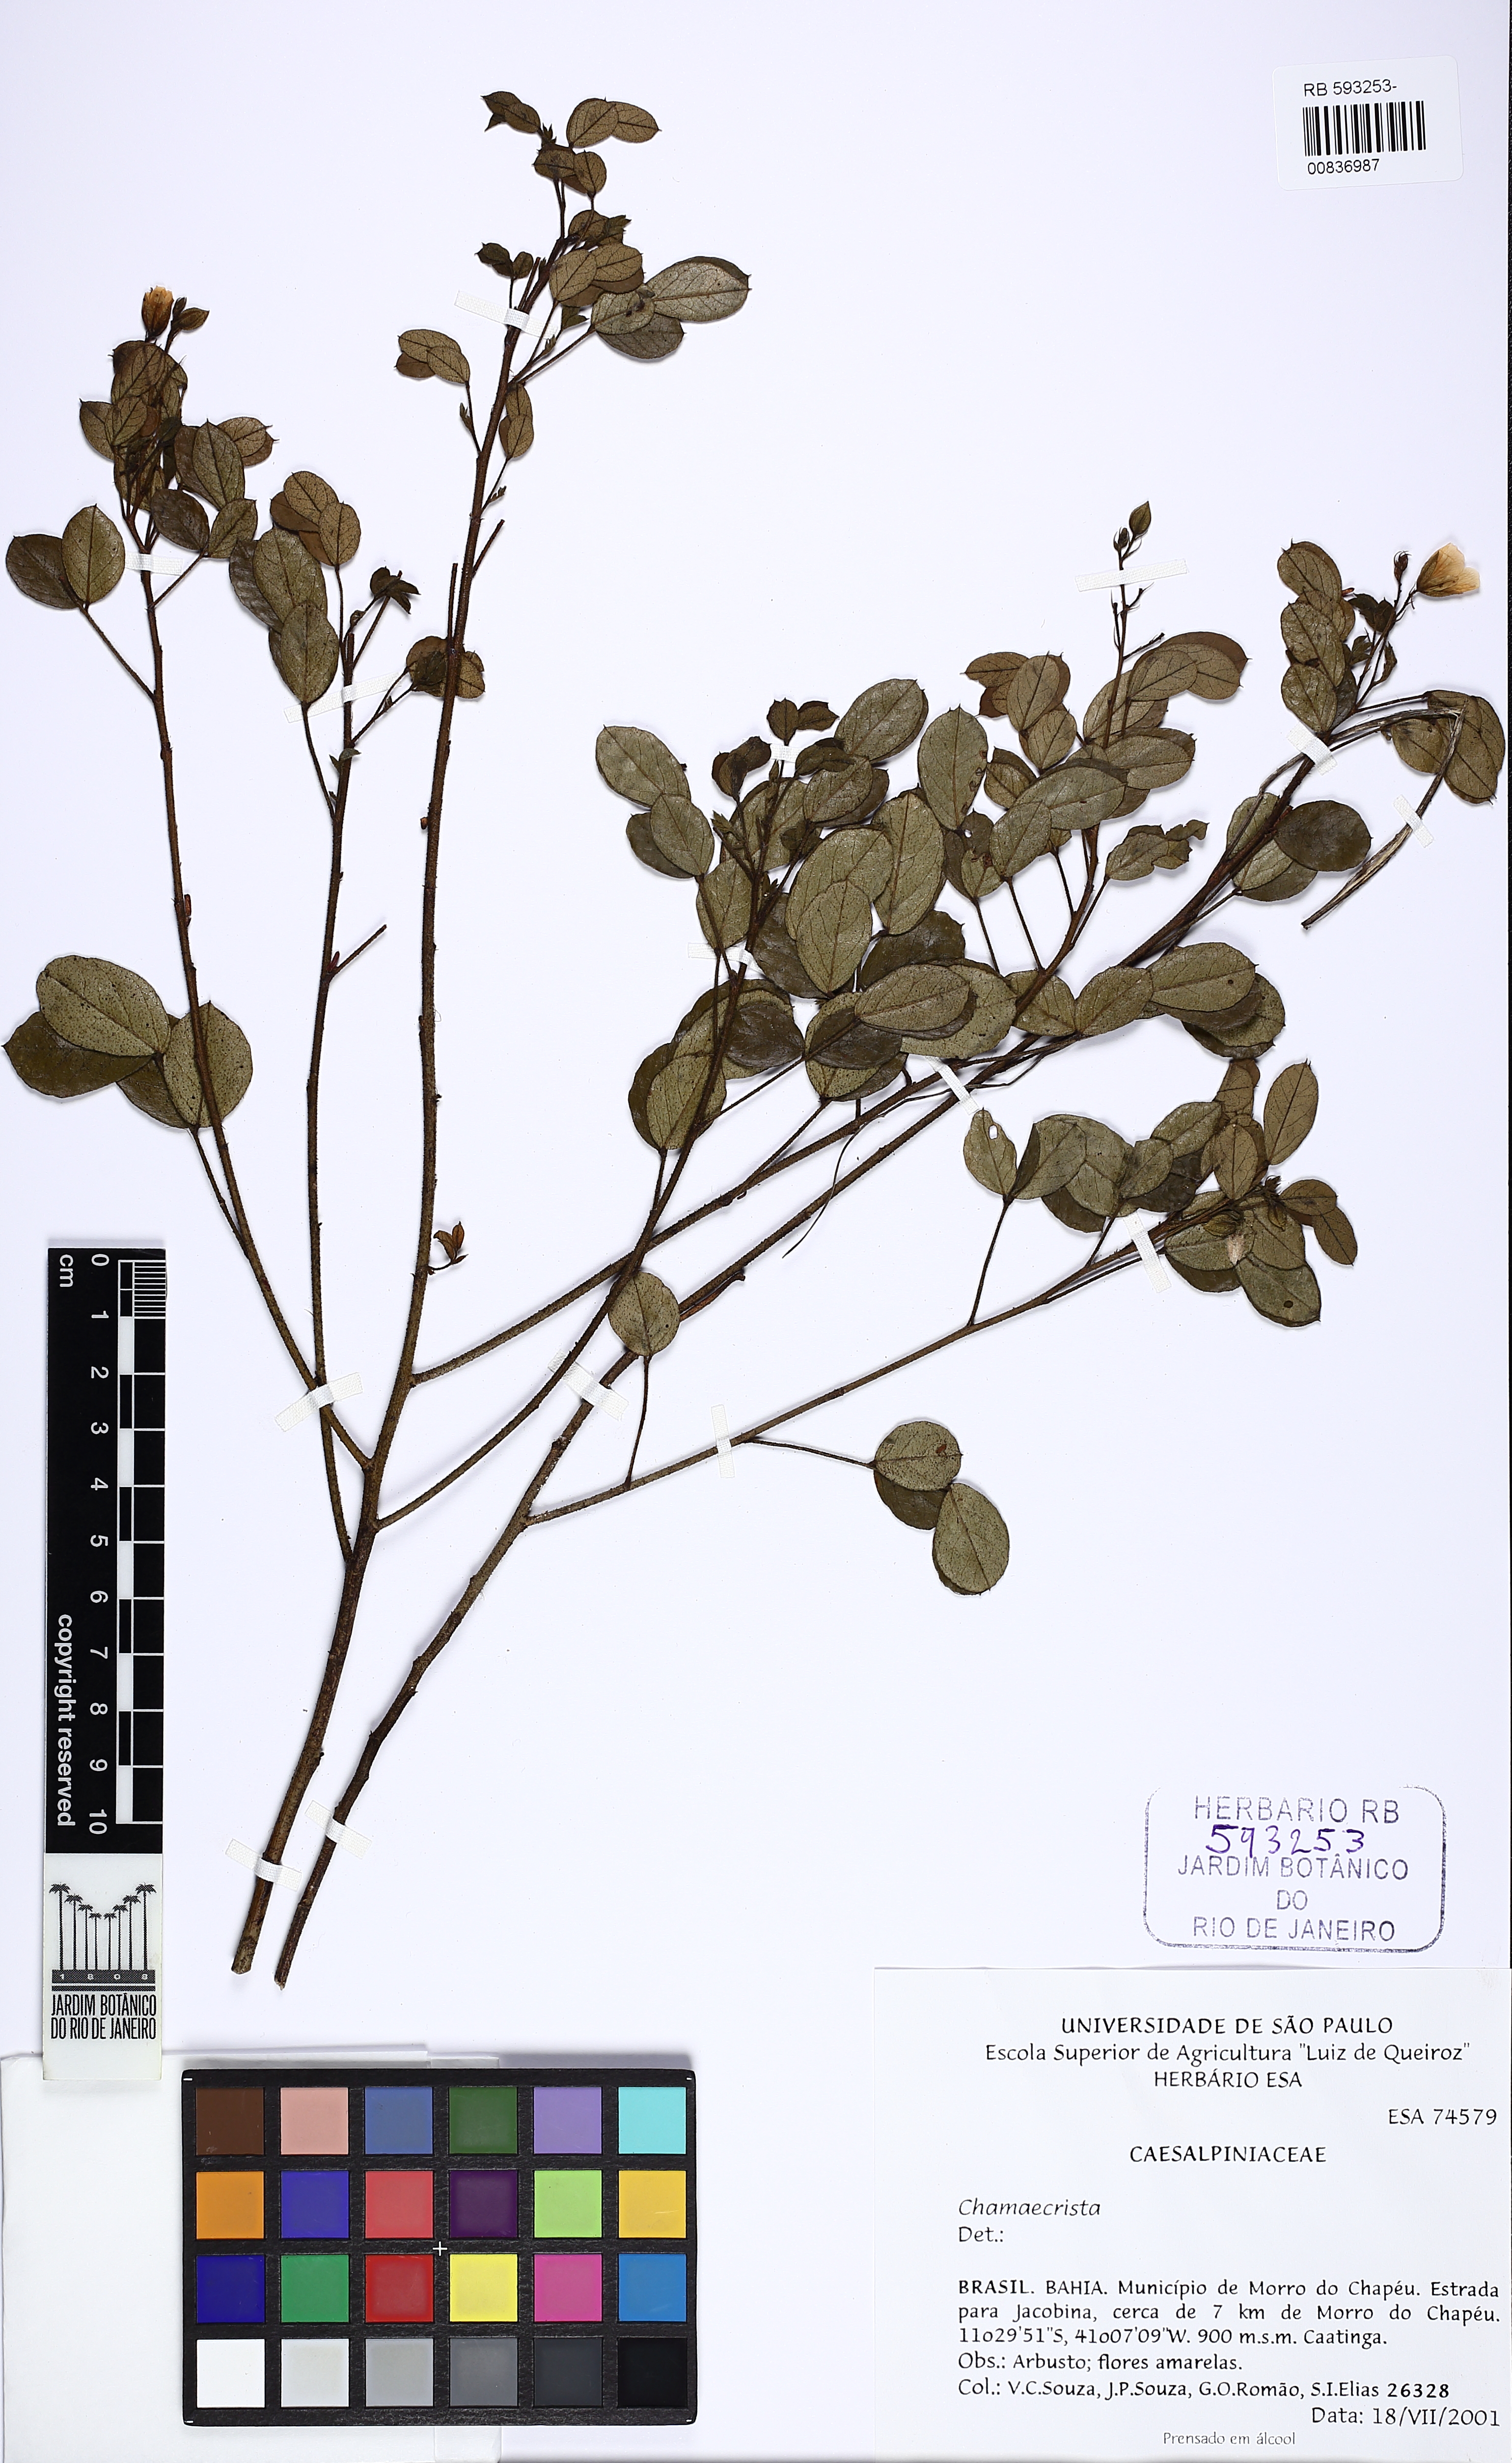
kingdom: Plantae
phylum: Tracheophyta
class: Magnoliopsida
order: Fabales
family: Fabaceae
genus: Chamaecrista
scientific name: Chamaecrista
